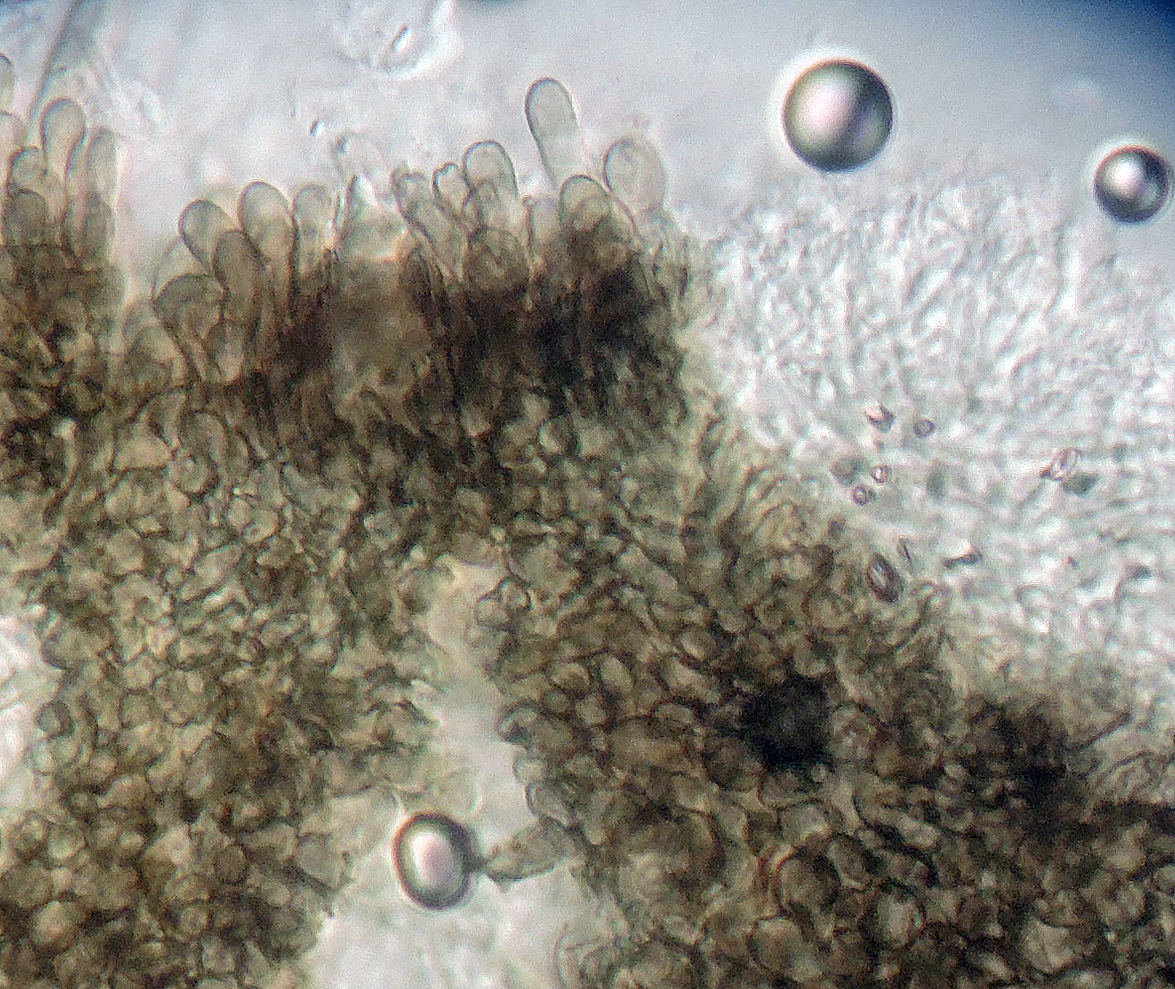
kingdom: Fungi
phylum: Ascomycota
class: Leotiomycetes
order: Helotiales
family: Mollisiaceae
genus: Tapesia
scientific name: Tapesia lividofusca
